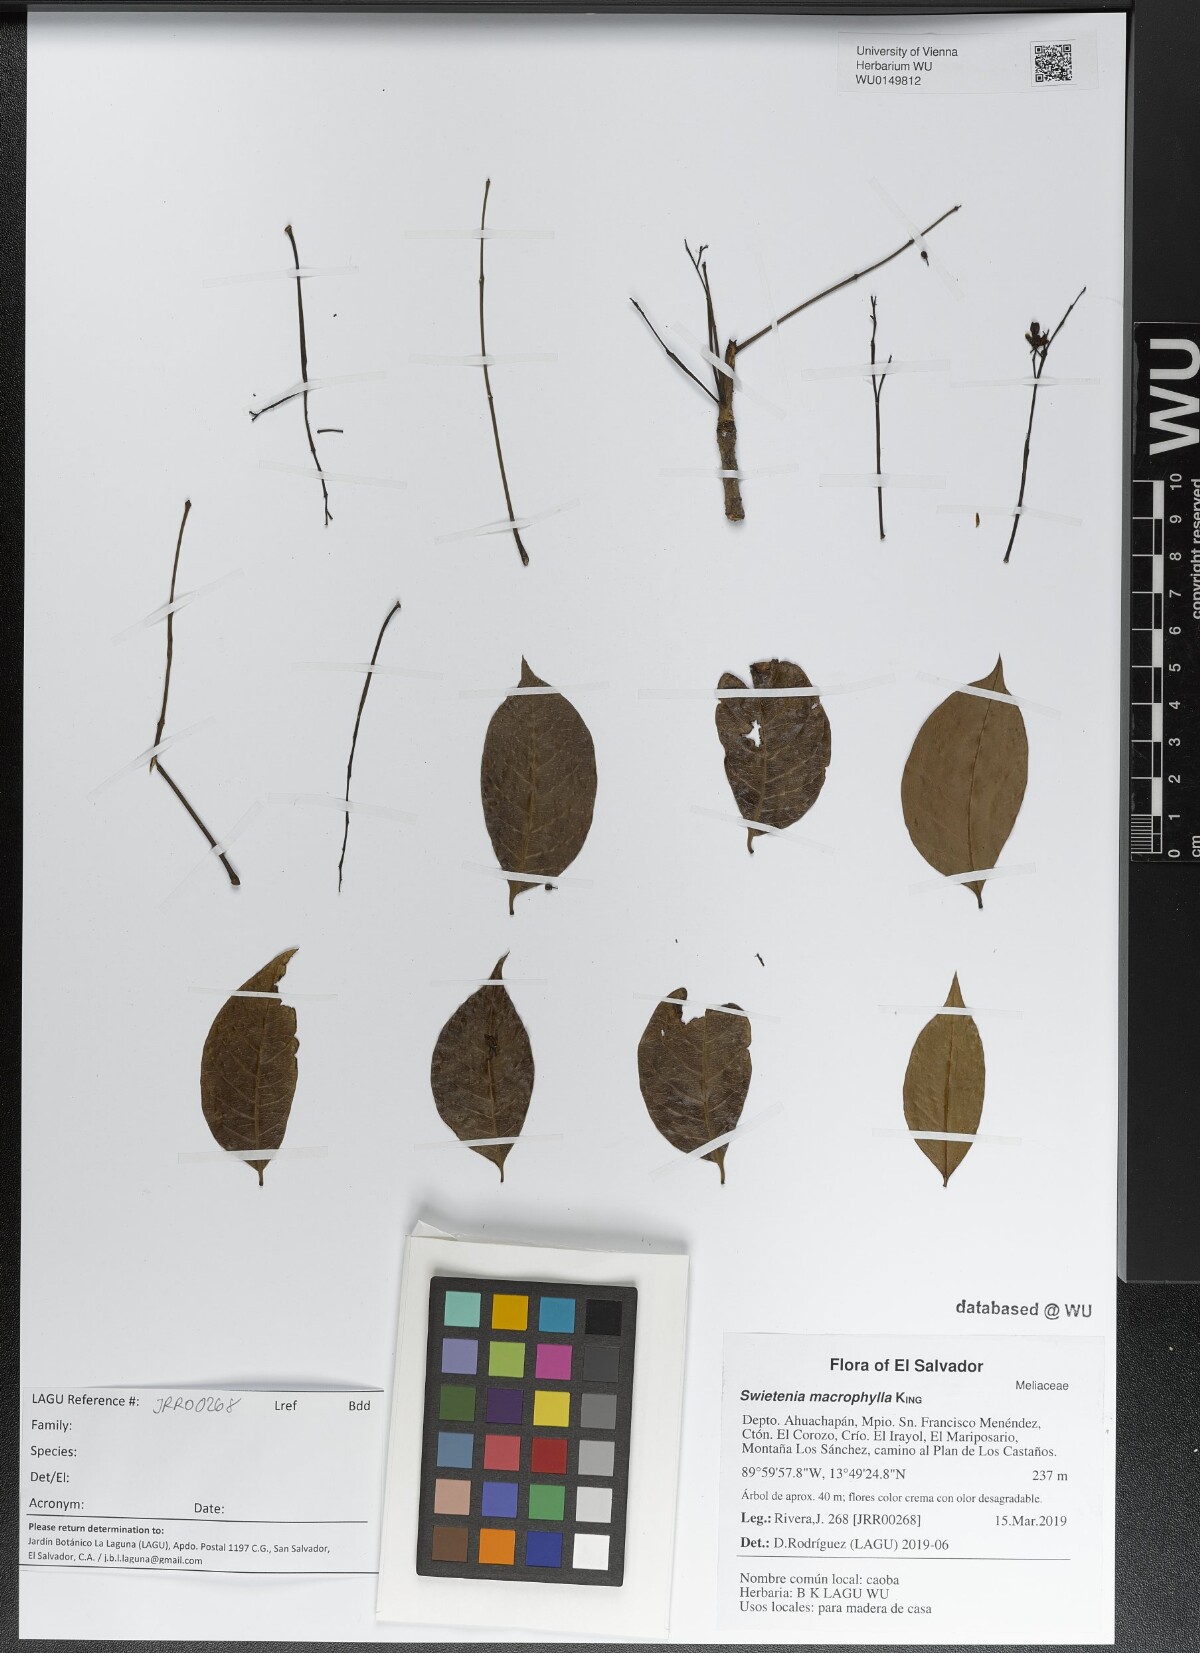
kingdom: Plantae
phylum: Tracheophyta
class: Magnoliopsida
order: Sapindales
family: Meliaceae
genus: Swietenia
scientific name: Swietenia macrophylla
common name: Honduras mahogany
